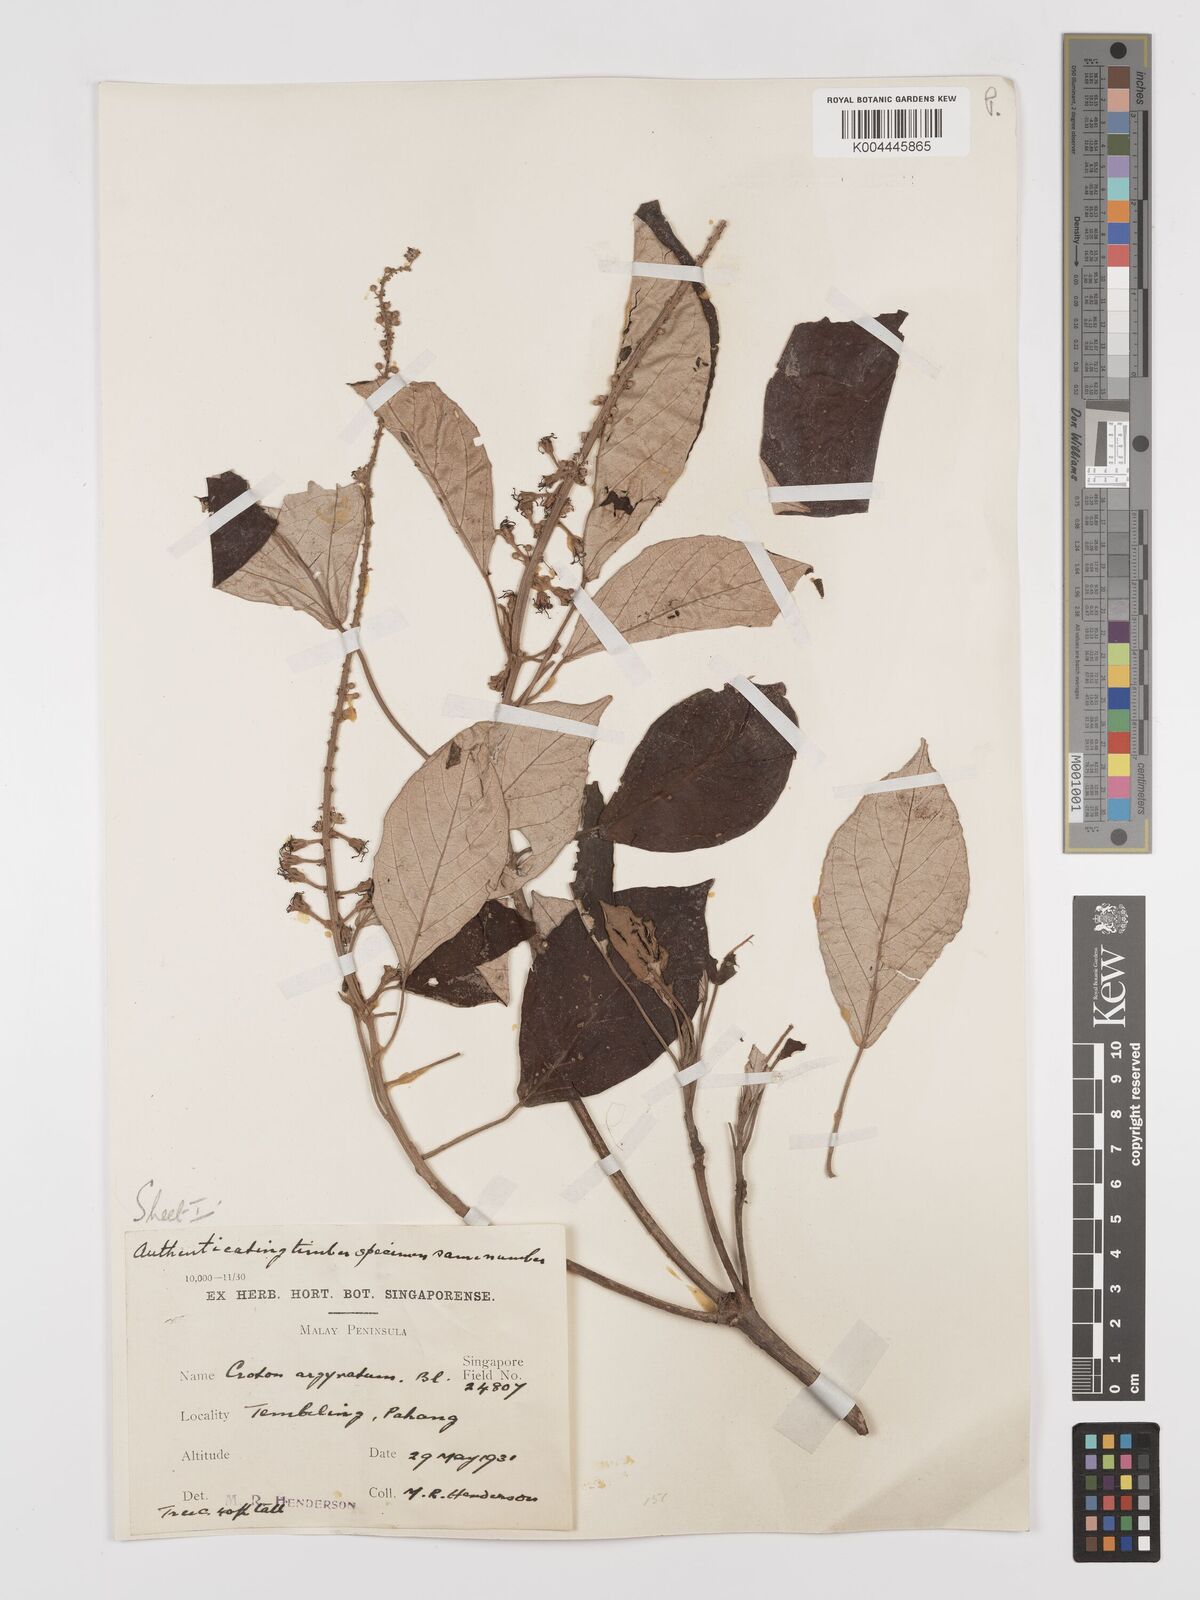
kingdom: Plantae
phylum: Tracheophyta
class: Magnoliopsida
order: Malpighiales
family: Euphorbiaceae
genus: Croton
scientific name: Croton argyratus
